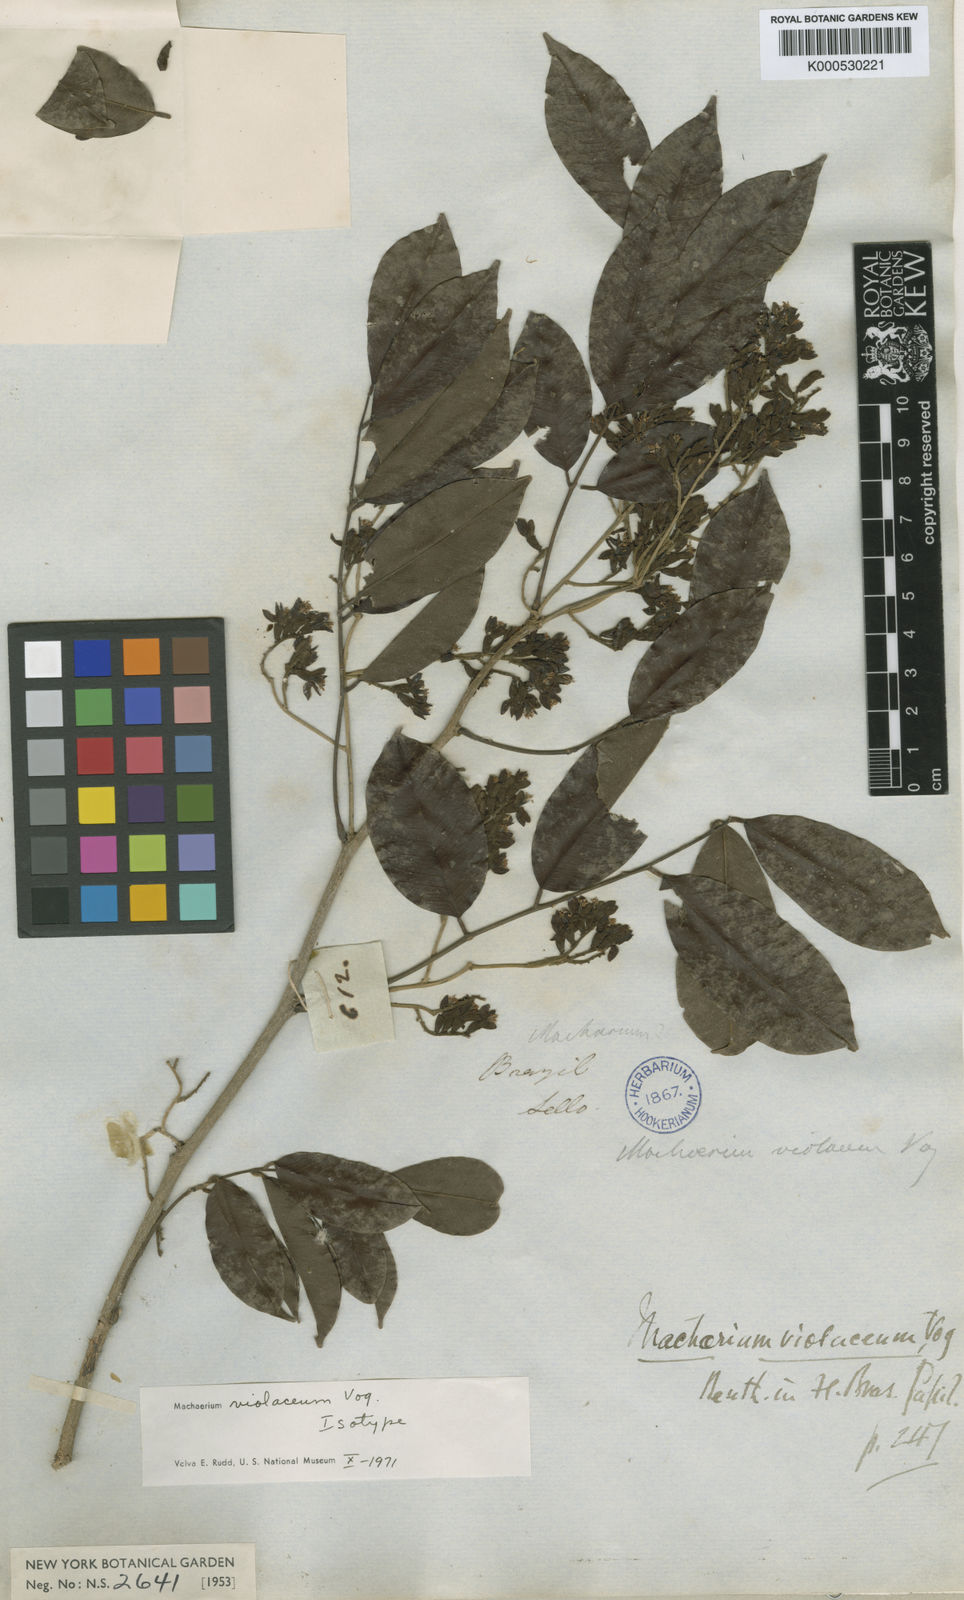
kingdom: Plantae
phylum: Tracheophyta
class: Magnoliopsida
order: Fabales
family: Fabaceae
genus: Machaerium
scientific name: Machaerium debile
